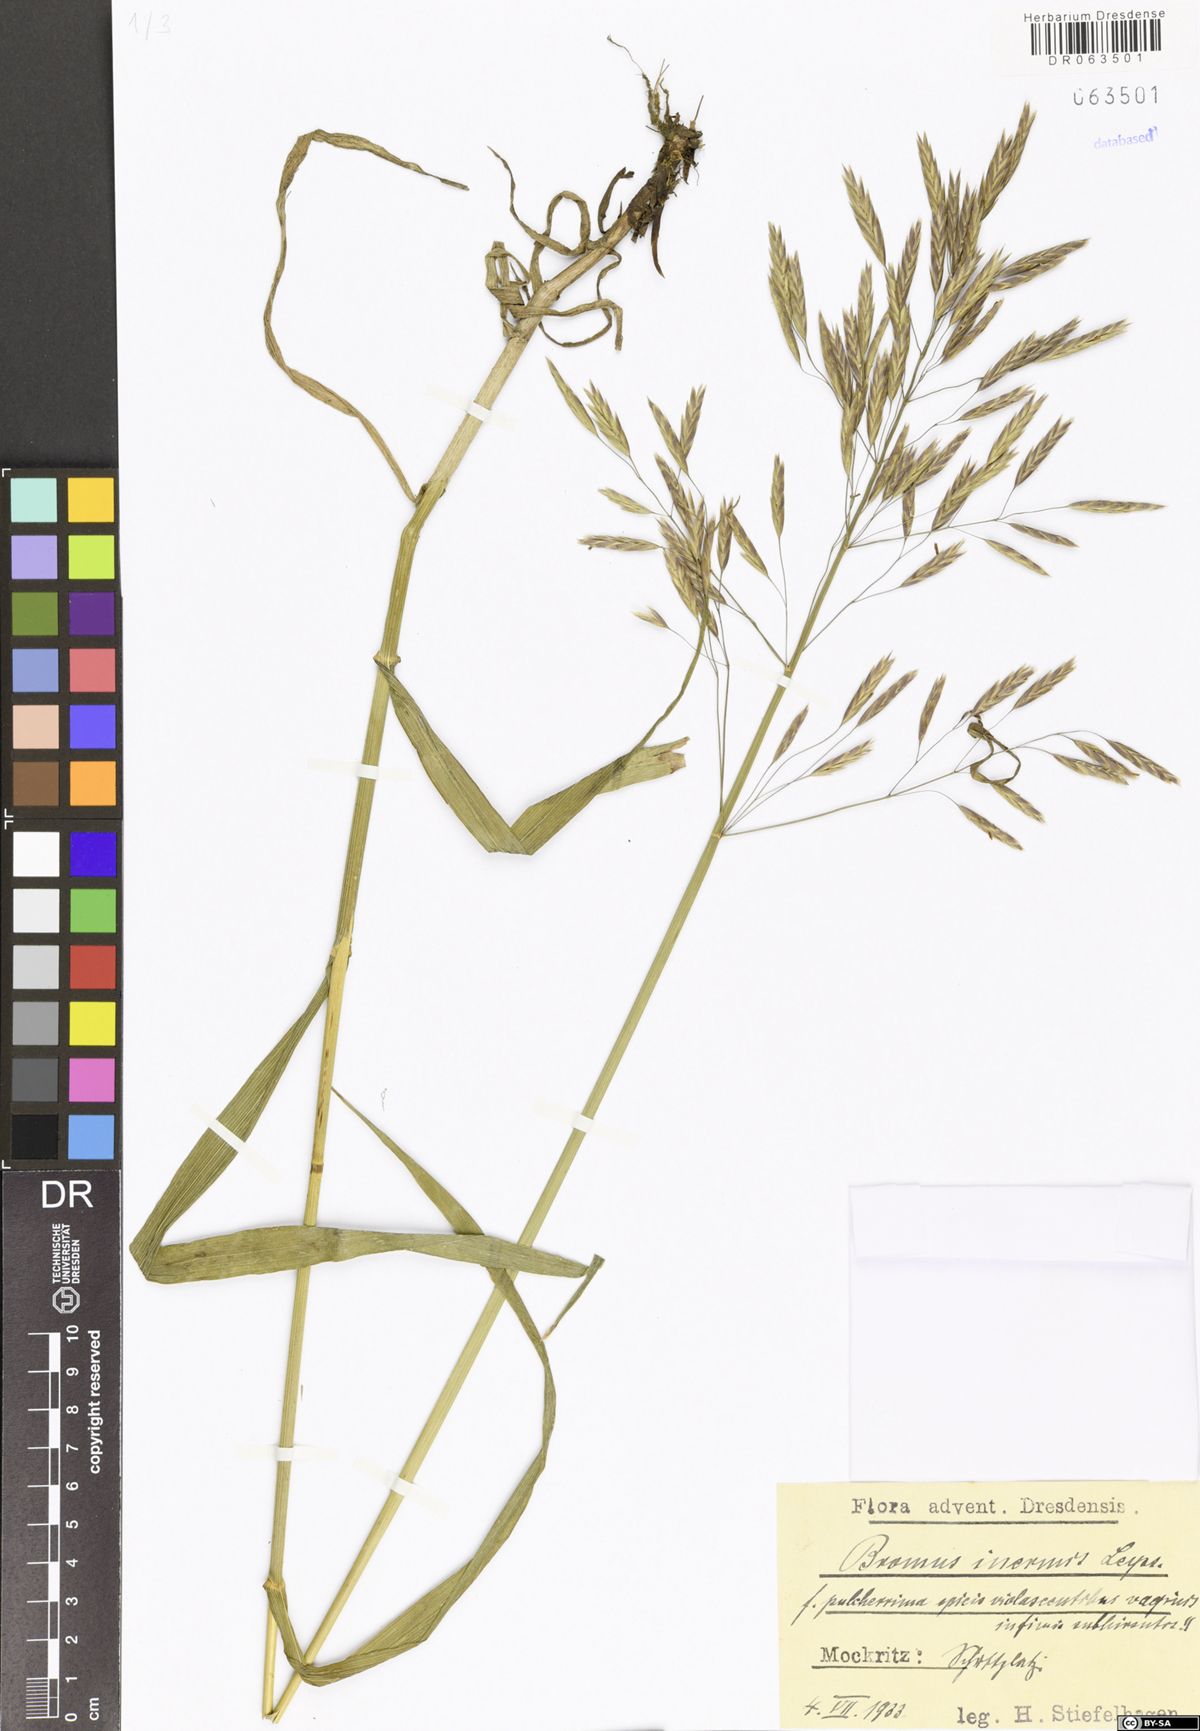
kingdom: Plantae
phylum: Tracheophyta
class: Liliopsida
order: Poales
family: Poaceae
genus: Bromus
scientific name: Bromus inermis
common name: Smooth brome
